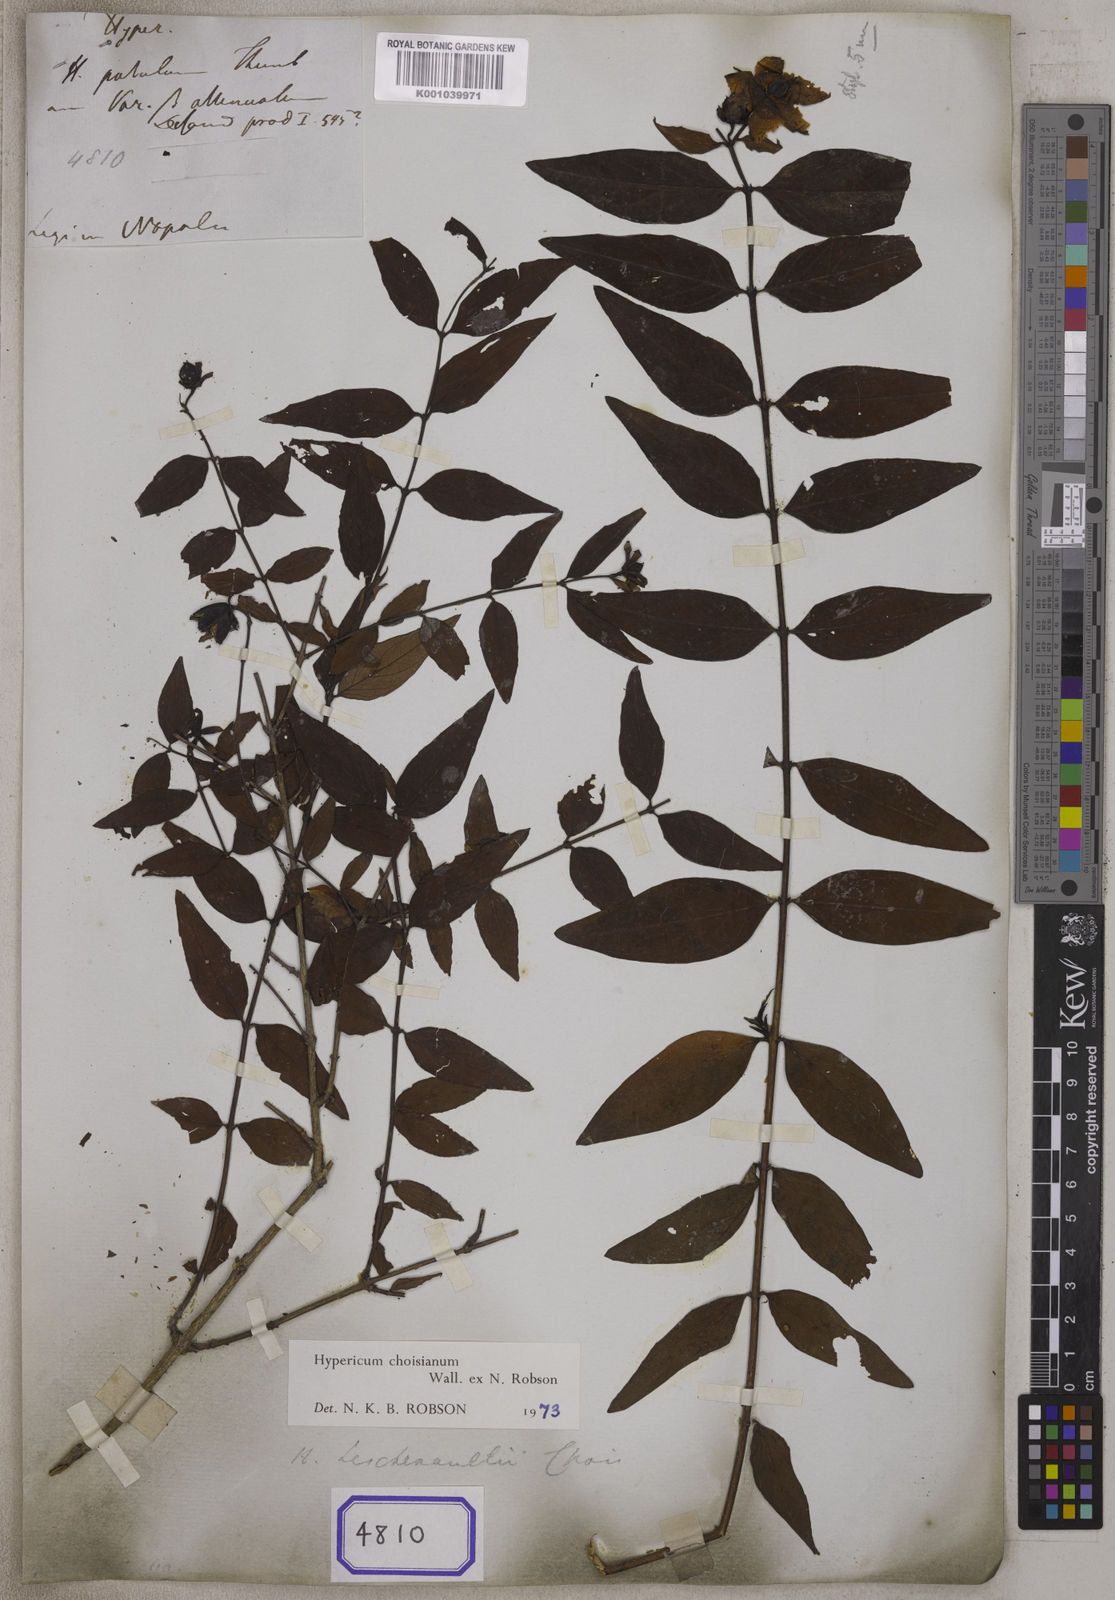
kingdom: Plantae
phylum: Tracheophyta
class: Magnoliopsida
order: Malpighiales
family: Hypericaceae
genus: Hypericum
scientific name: Hypericum oblongifolium
